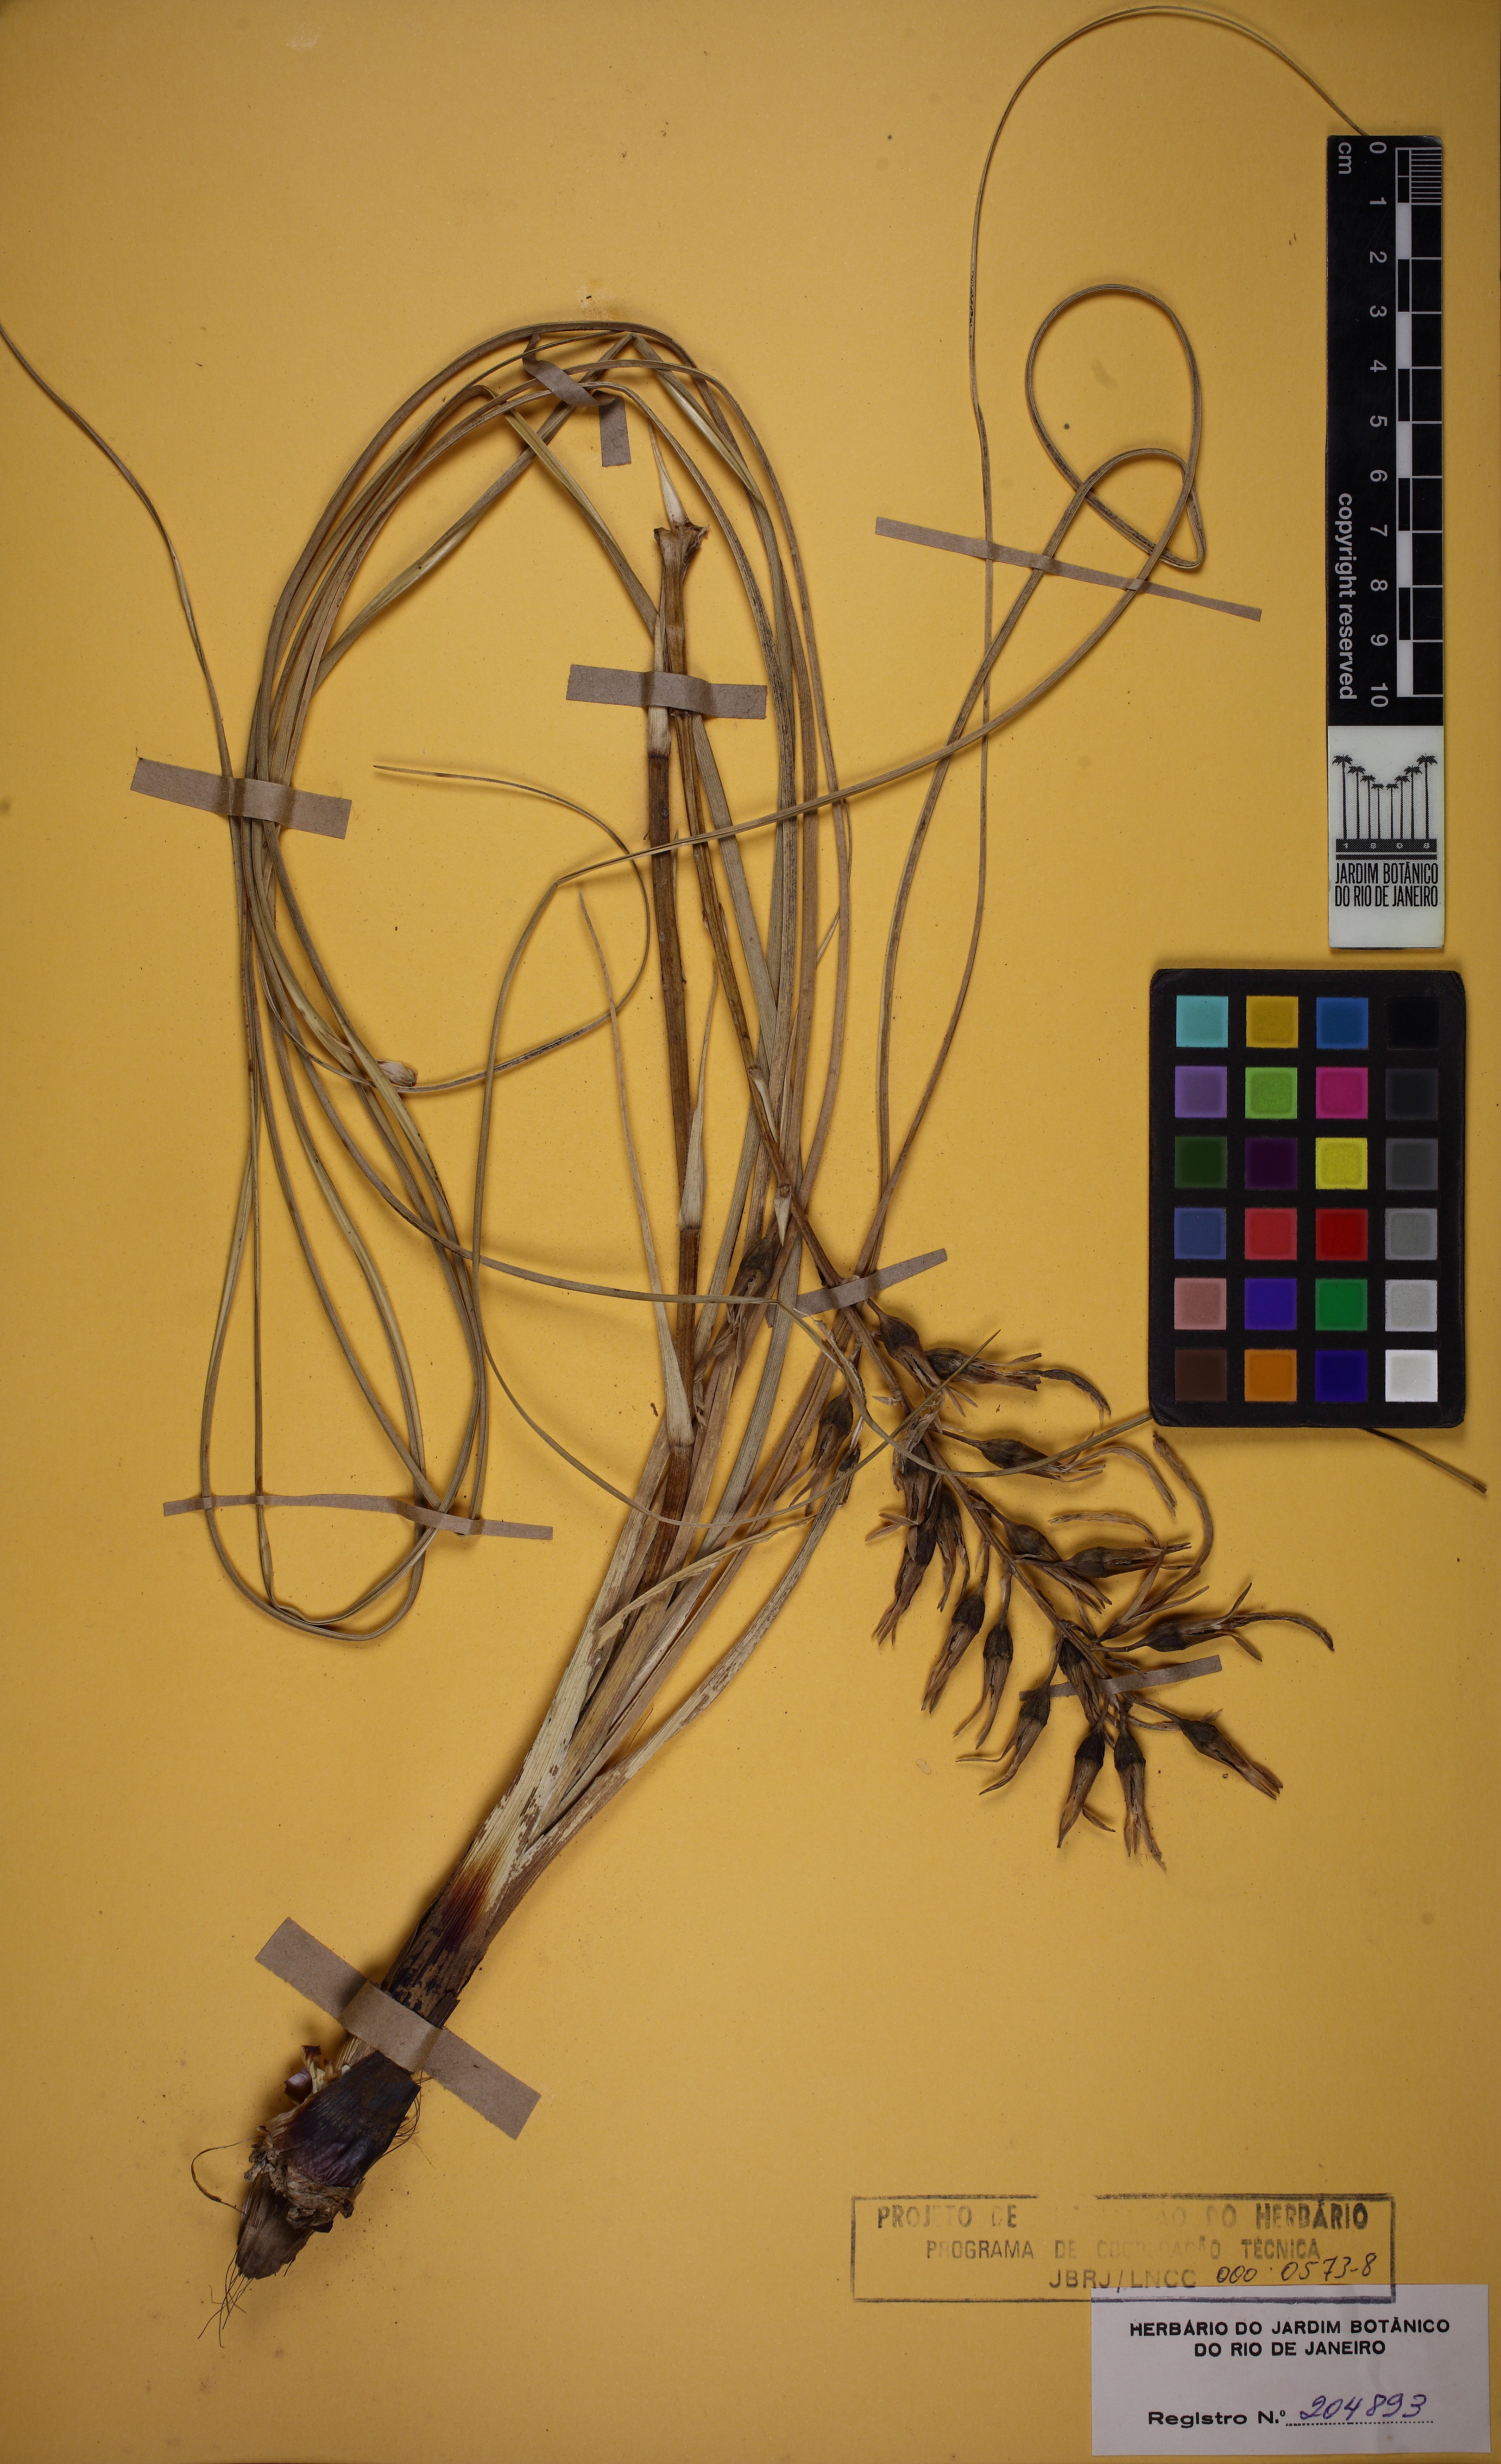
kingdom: Plantae
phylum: Tracheophyta
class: Liliopsida
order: Poales
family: Bromeliaceae
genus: Pitcairnia
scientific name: Pitcairnia ulei
